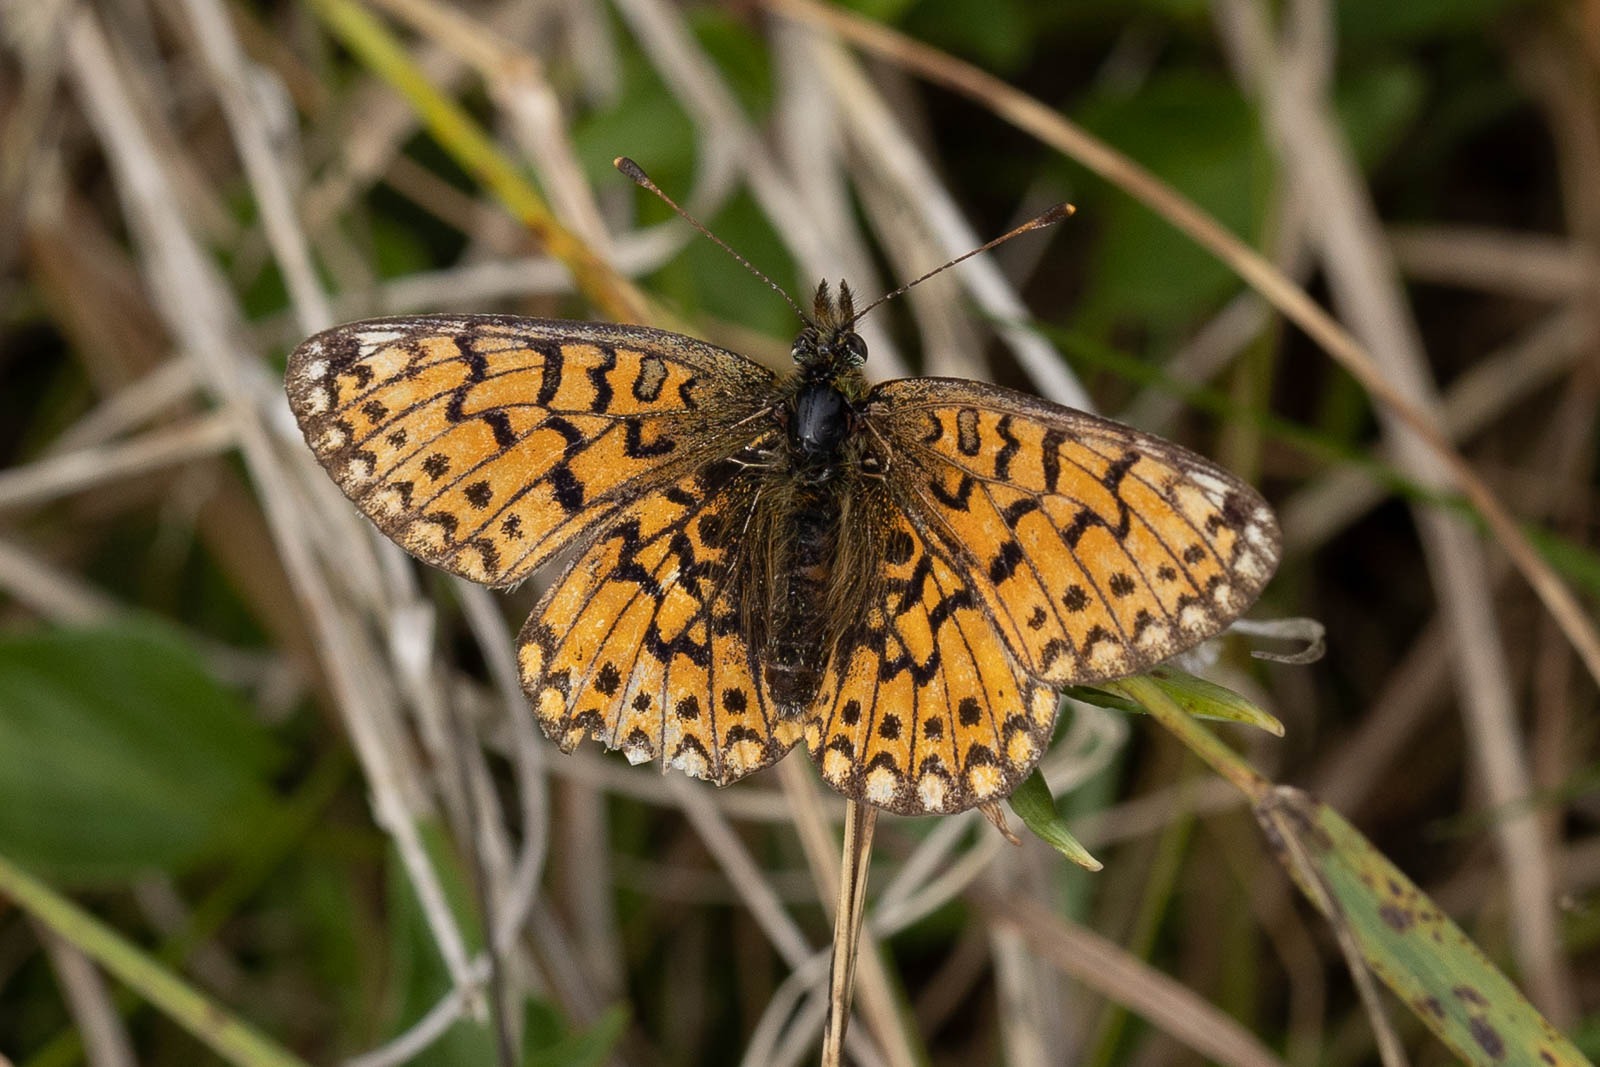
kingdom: Animalia
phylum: Arthropoda
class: Insecta
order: Lepidoptera
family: Nymphalidae
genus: Boloria
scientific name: Boloria selene
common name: Brunlig perlemorsommerfugl
